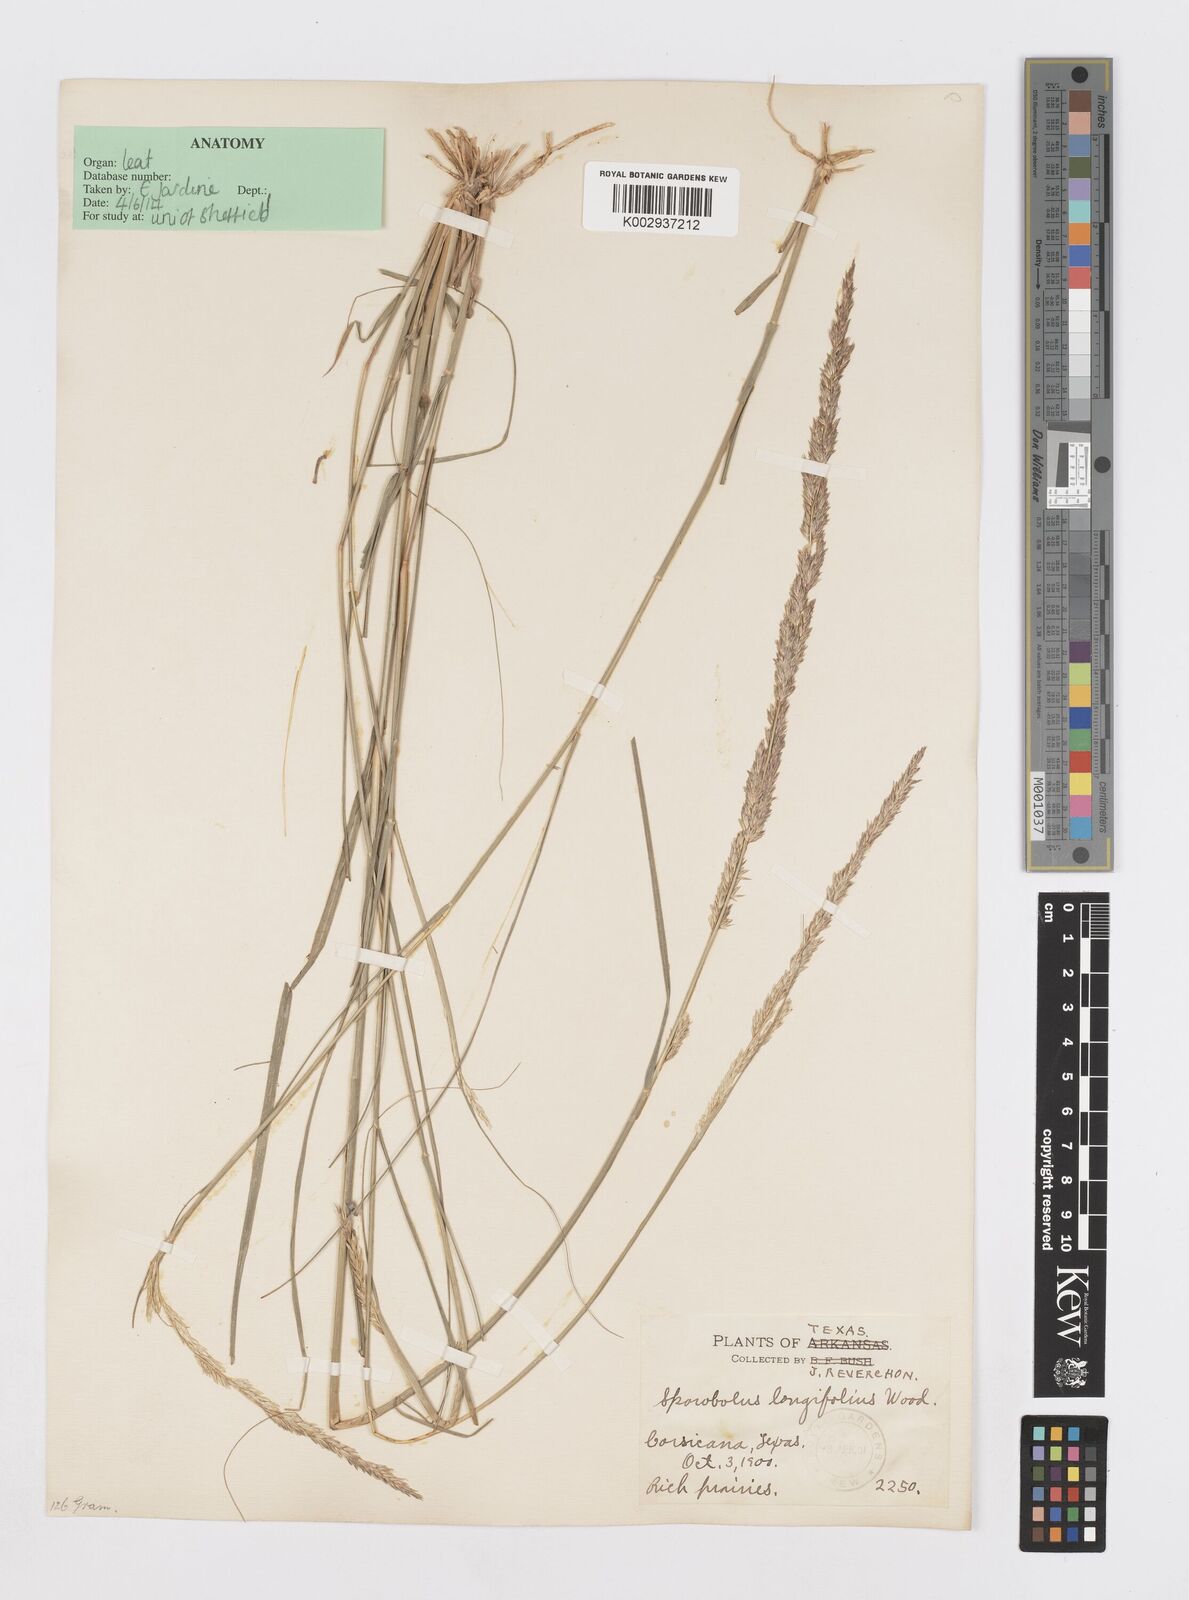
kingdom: Plantae
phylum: Tracheophyta
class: Liliopsida
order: Poales
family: Poaceae
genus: Sporobolus
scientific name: Sporobolus compositus
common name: Rough dropseed
